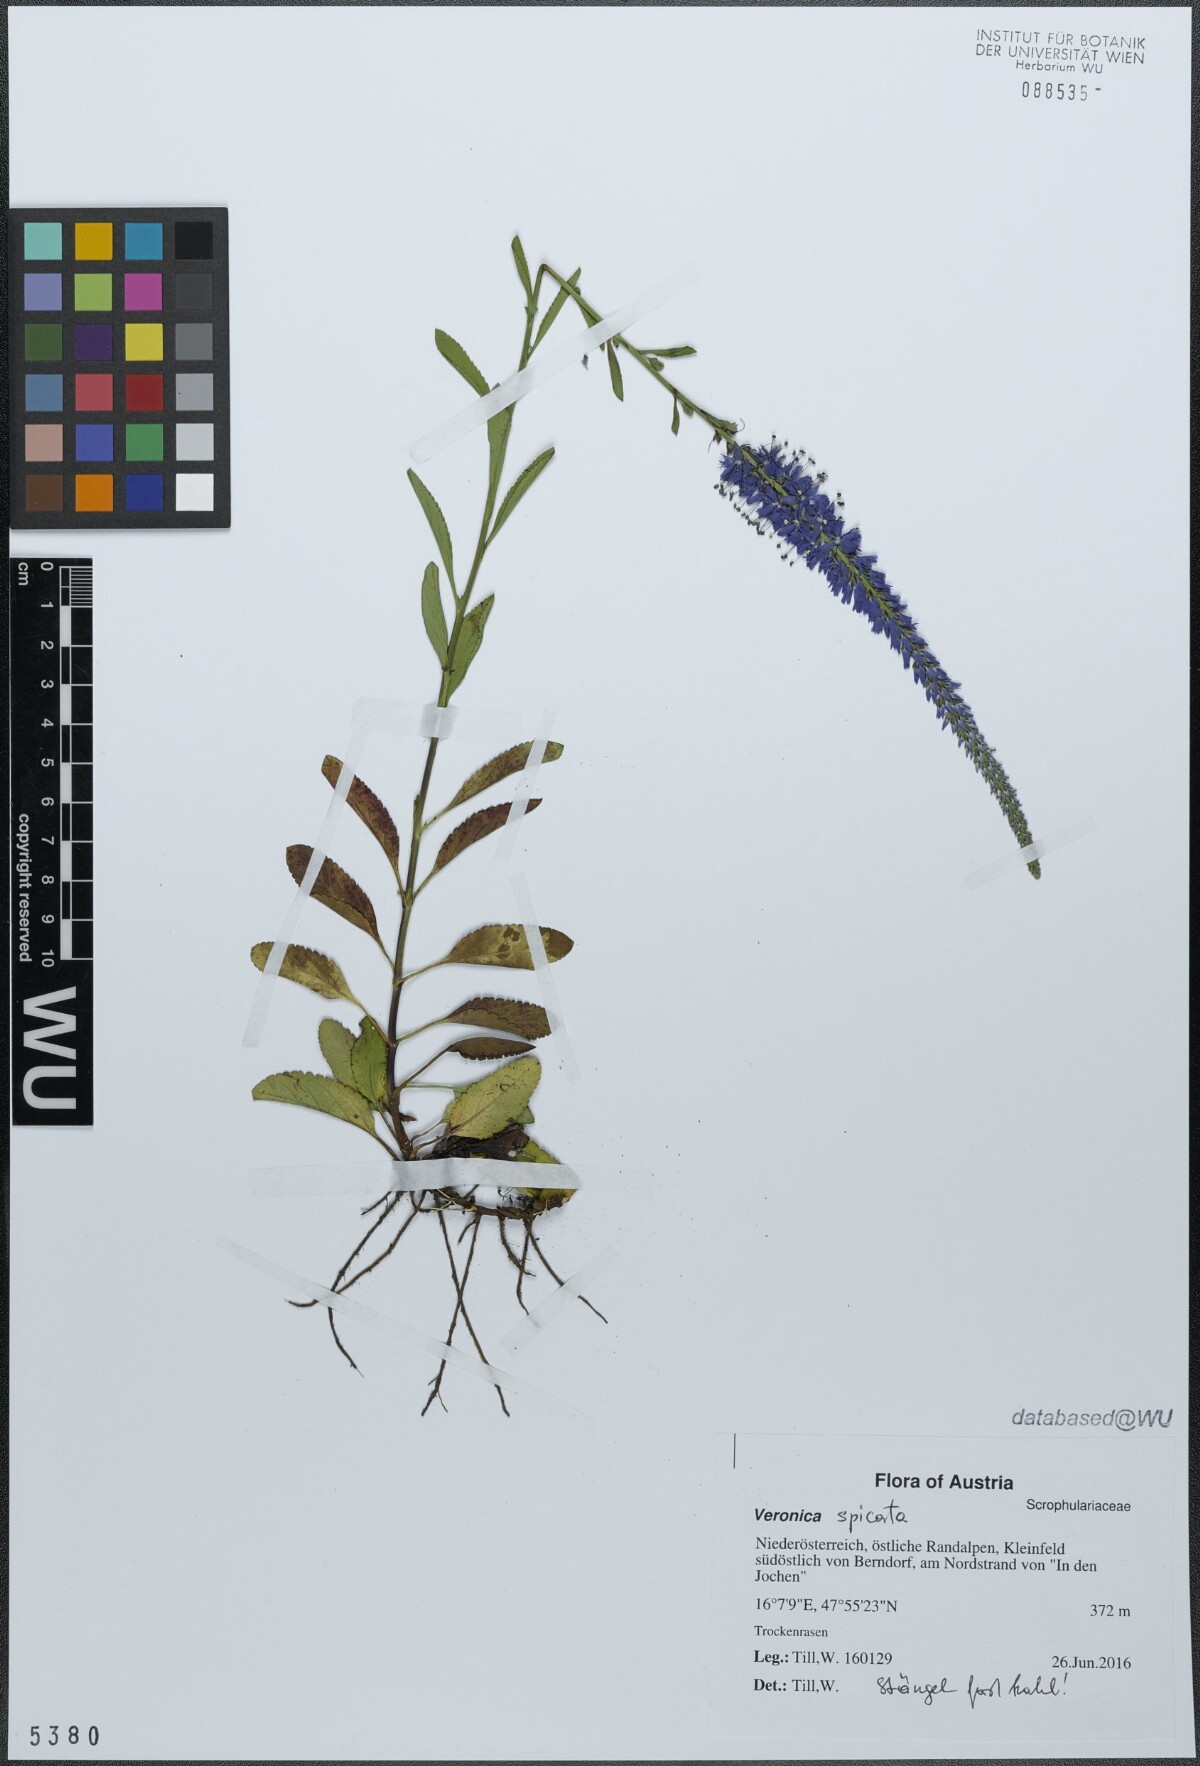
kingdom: Plantae
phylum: Tracheophyta
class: Magnoliopsida
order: Lamiales
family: Plantaginaceae
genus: Veronica
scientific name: Veronica spicata
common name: Spiked speedwell
